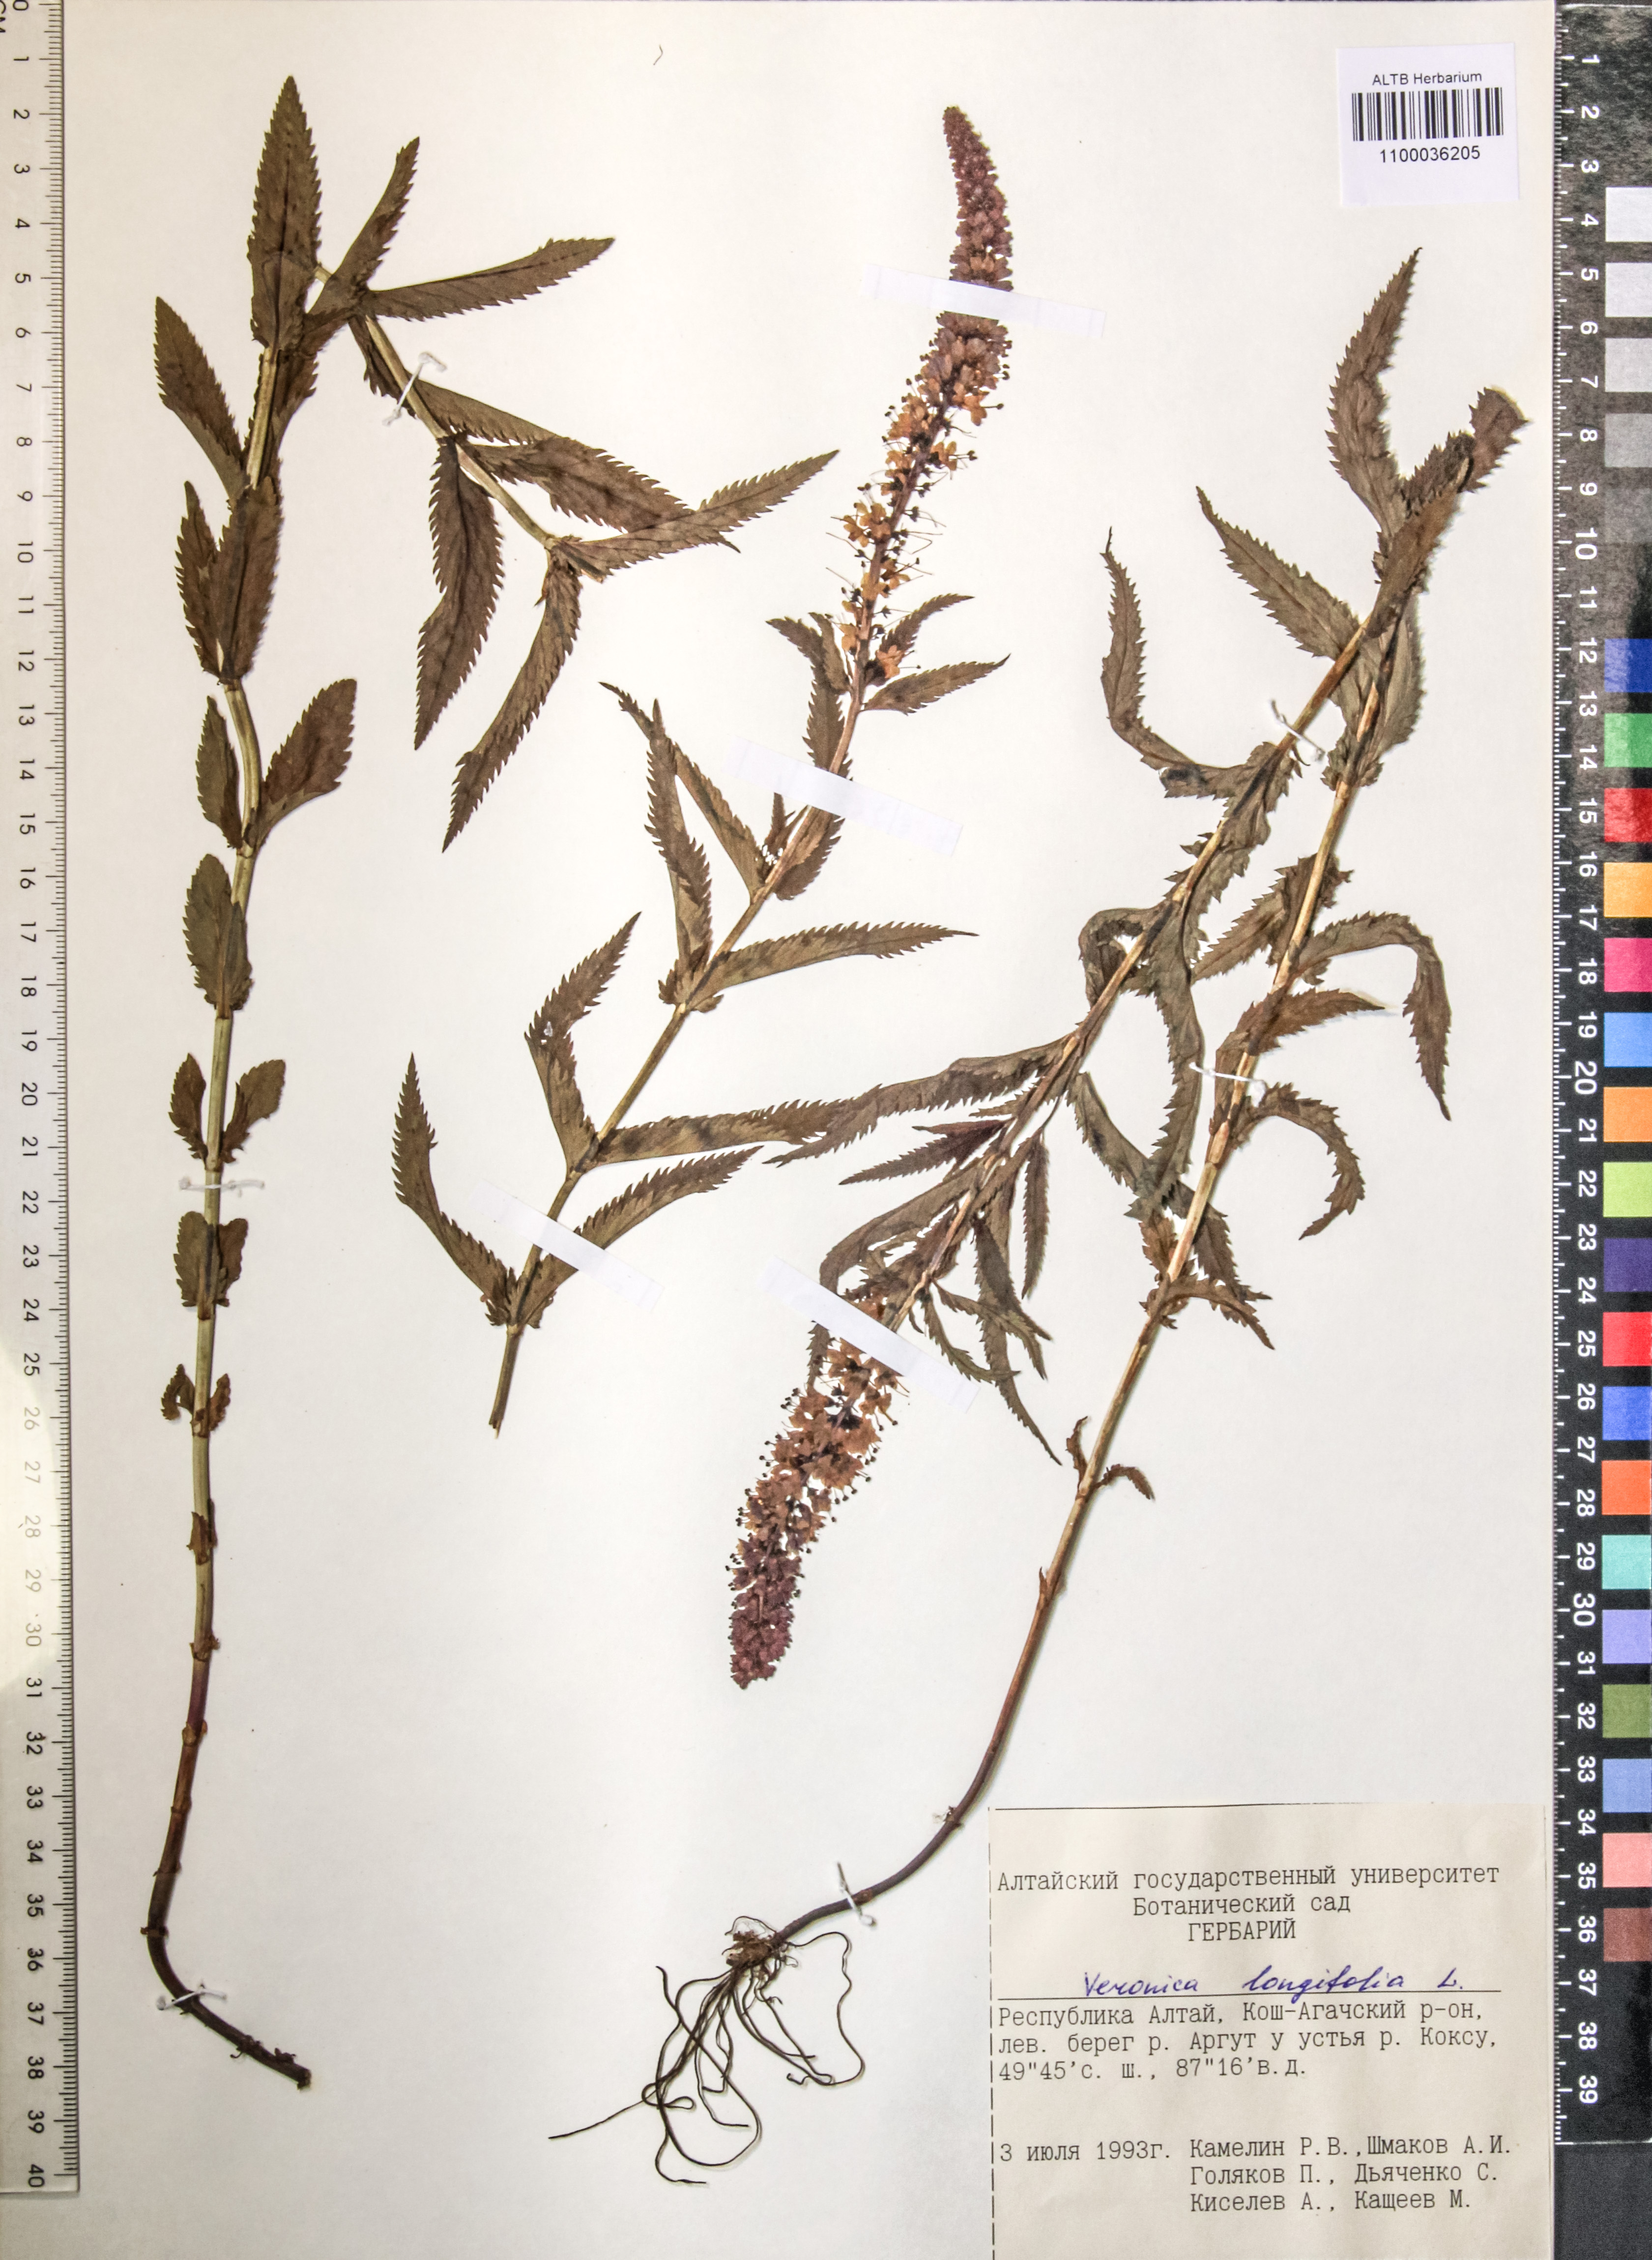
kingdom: Plantae
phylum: Tracheophyta
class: Magnoliopsida
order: Lamiales
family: Plantaginaceae
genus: Veronica
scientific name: Veronica longifolia
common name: Garden speedwell
